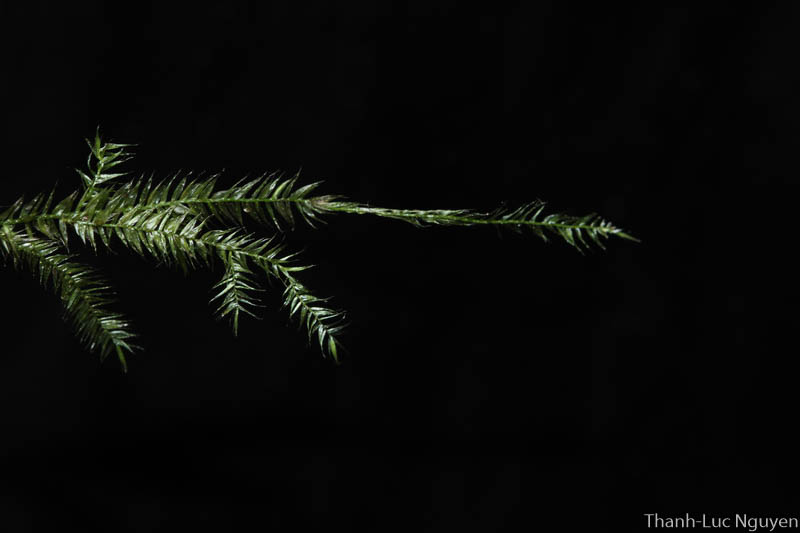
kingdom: Plantae
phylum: Bryophyta
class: Bryopsida
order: Hypnales
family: Meteoriaceae
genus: Pseudotrachypus
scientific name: Pseudotrachypus spiculatus
